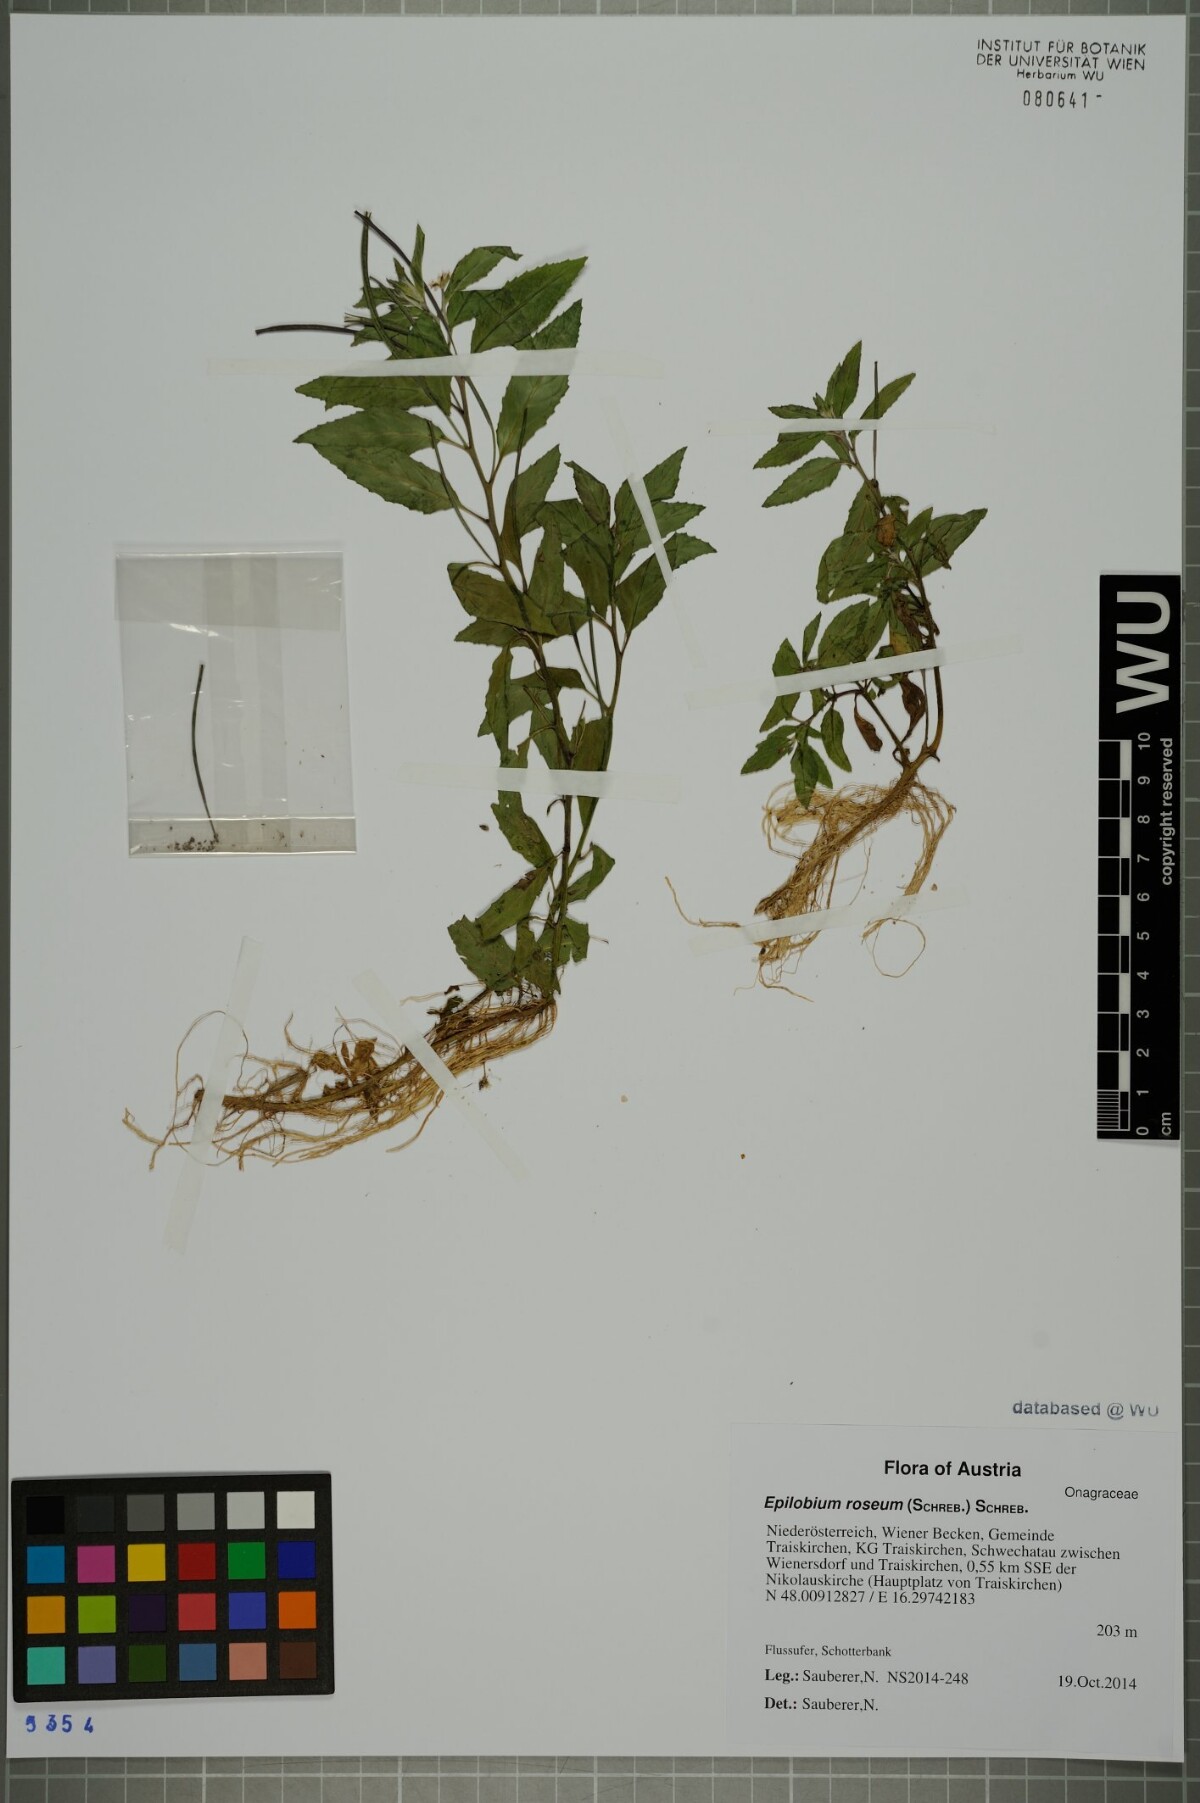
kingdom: Plantae
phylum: Tracheophyta
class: Magnoliopsida
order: Myrtales
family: Onagraceae
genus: Epilobium
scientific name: Epilobium roseum
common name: Pale willowherb
